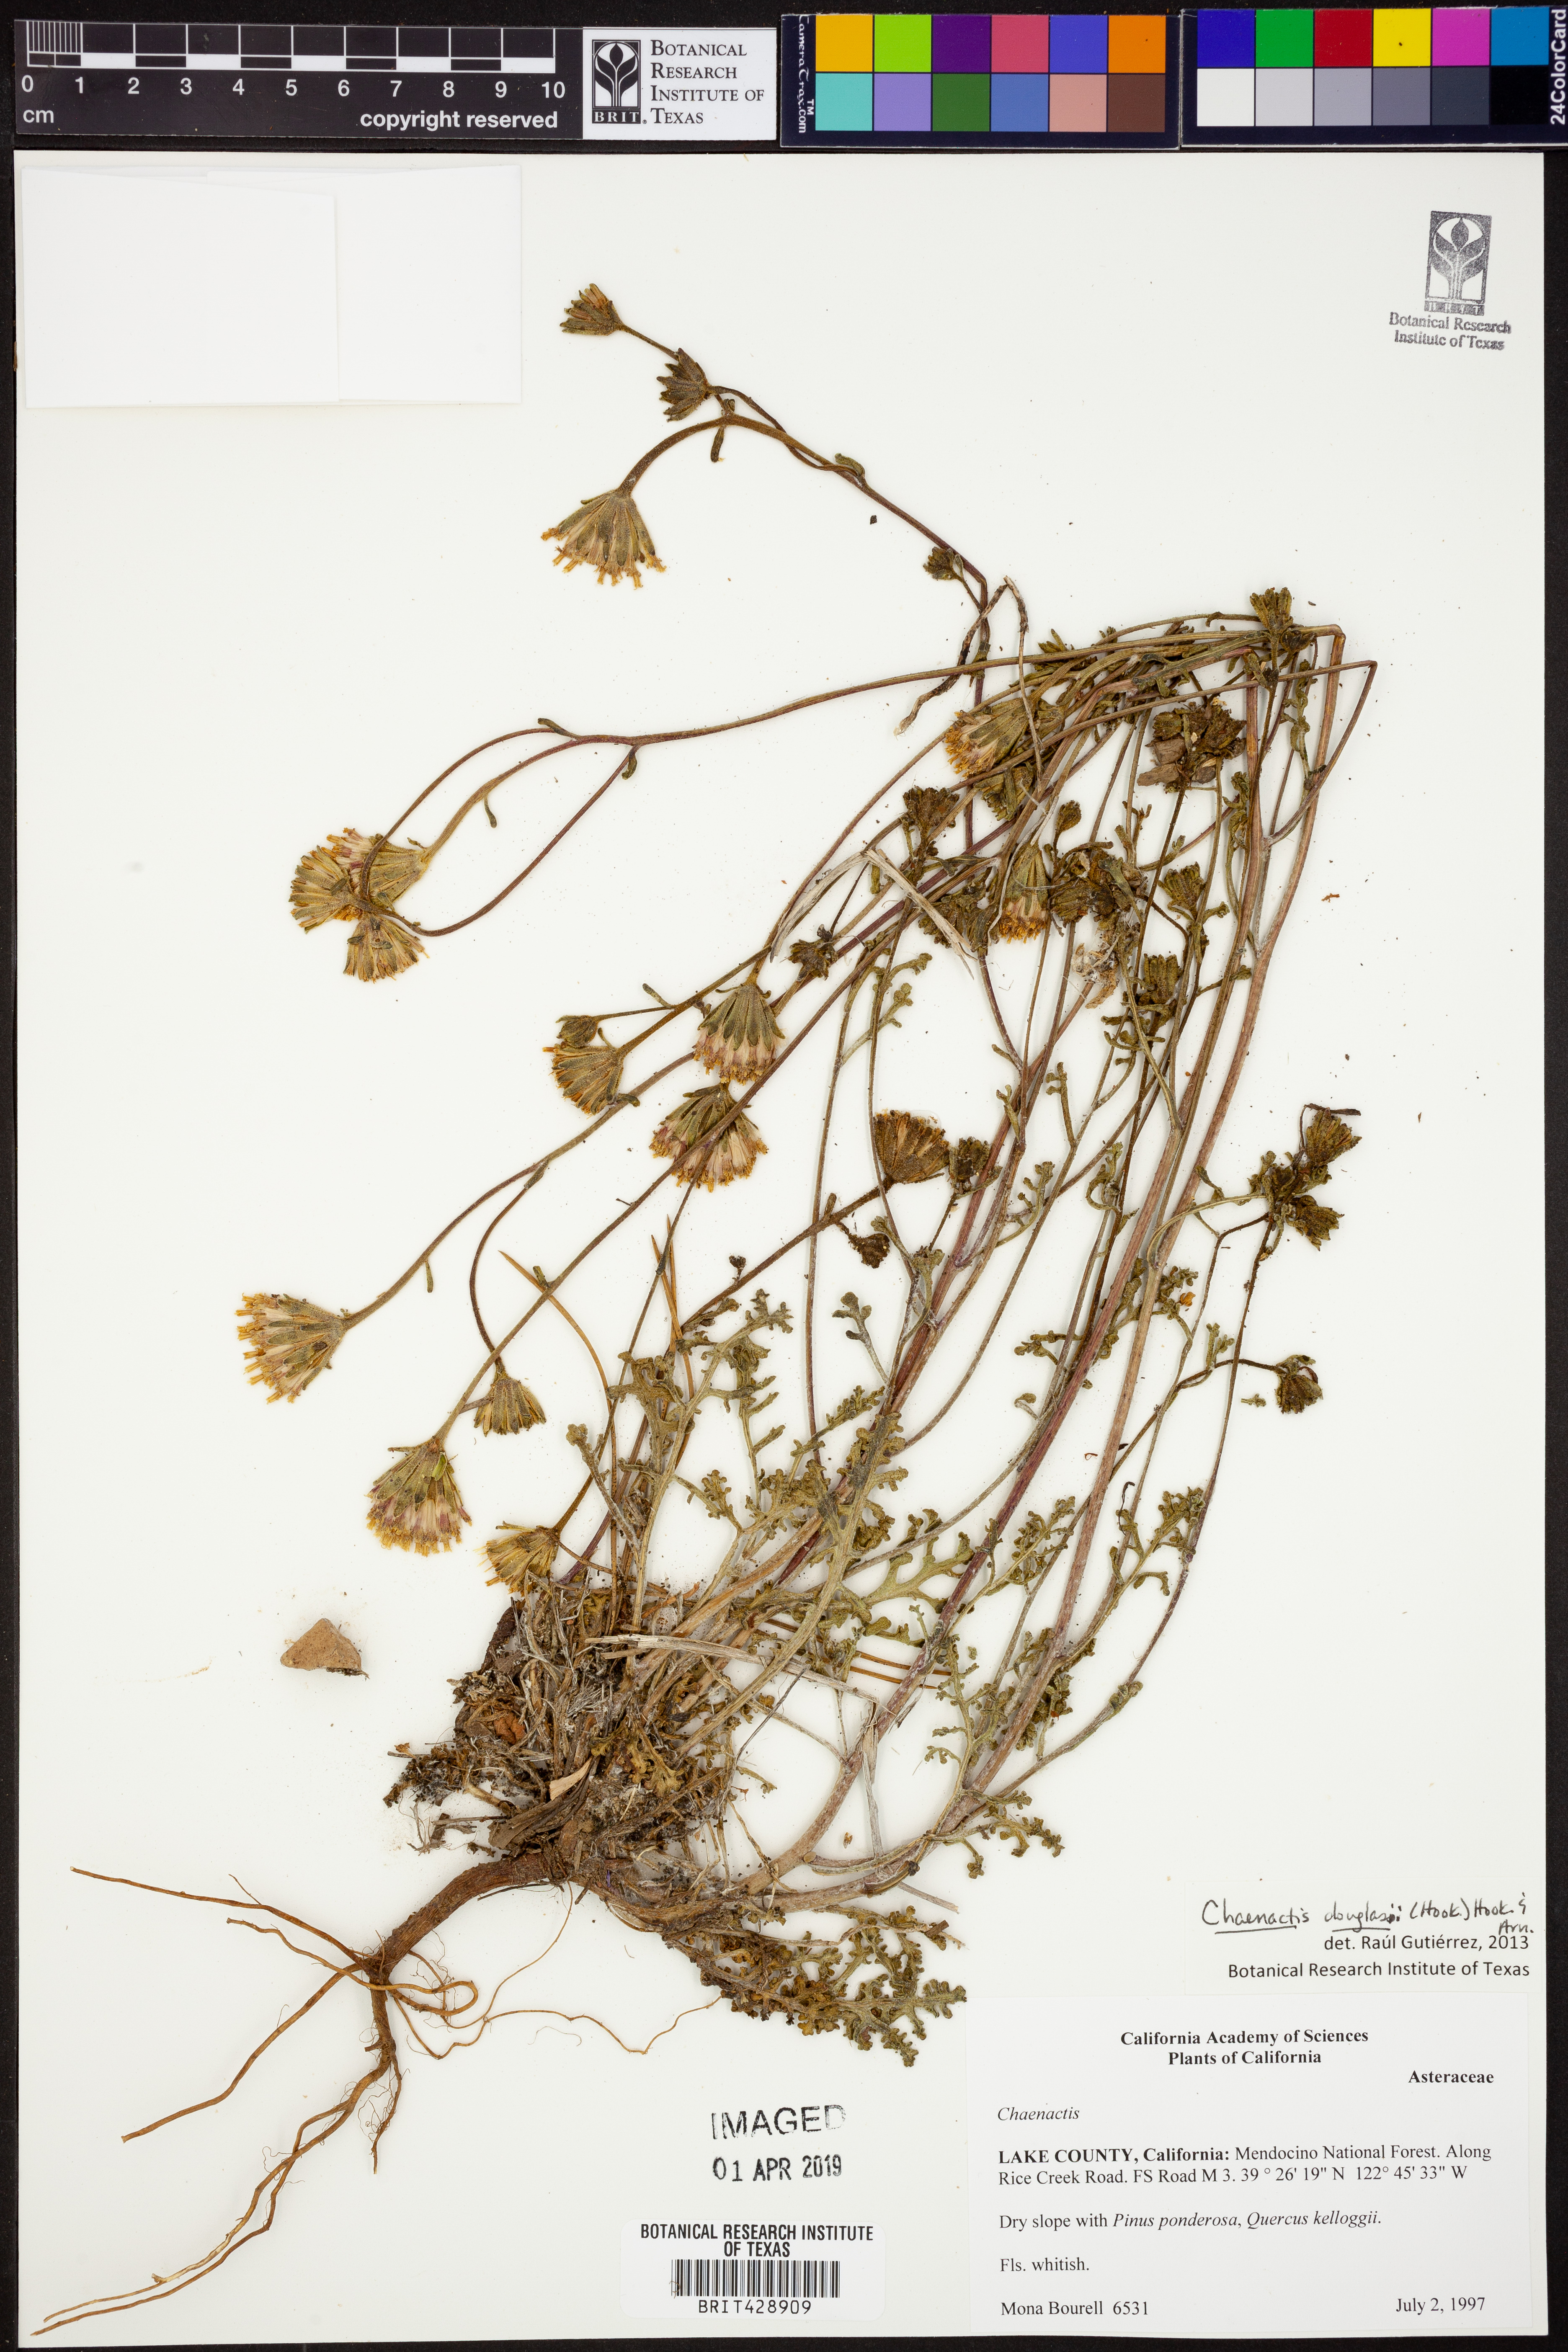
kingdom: Plantae
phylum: Tracheophyta
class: Magnoliopsida
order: Asterales
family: Asteraceae
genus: Chaenactis
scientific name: Chaenactis douglasii
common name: Hoary pincushion
